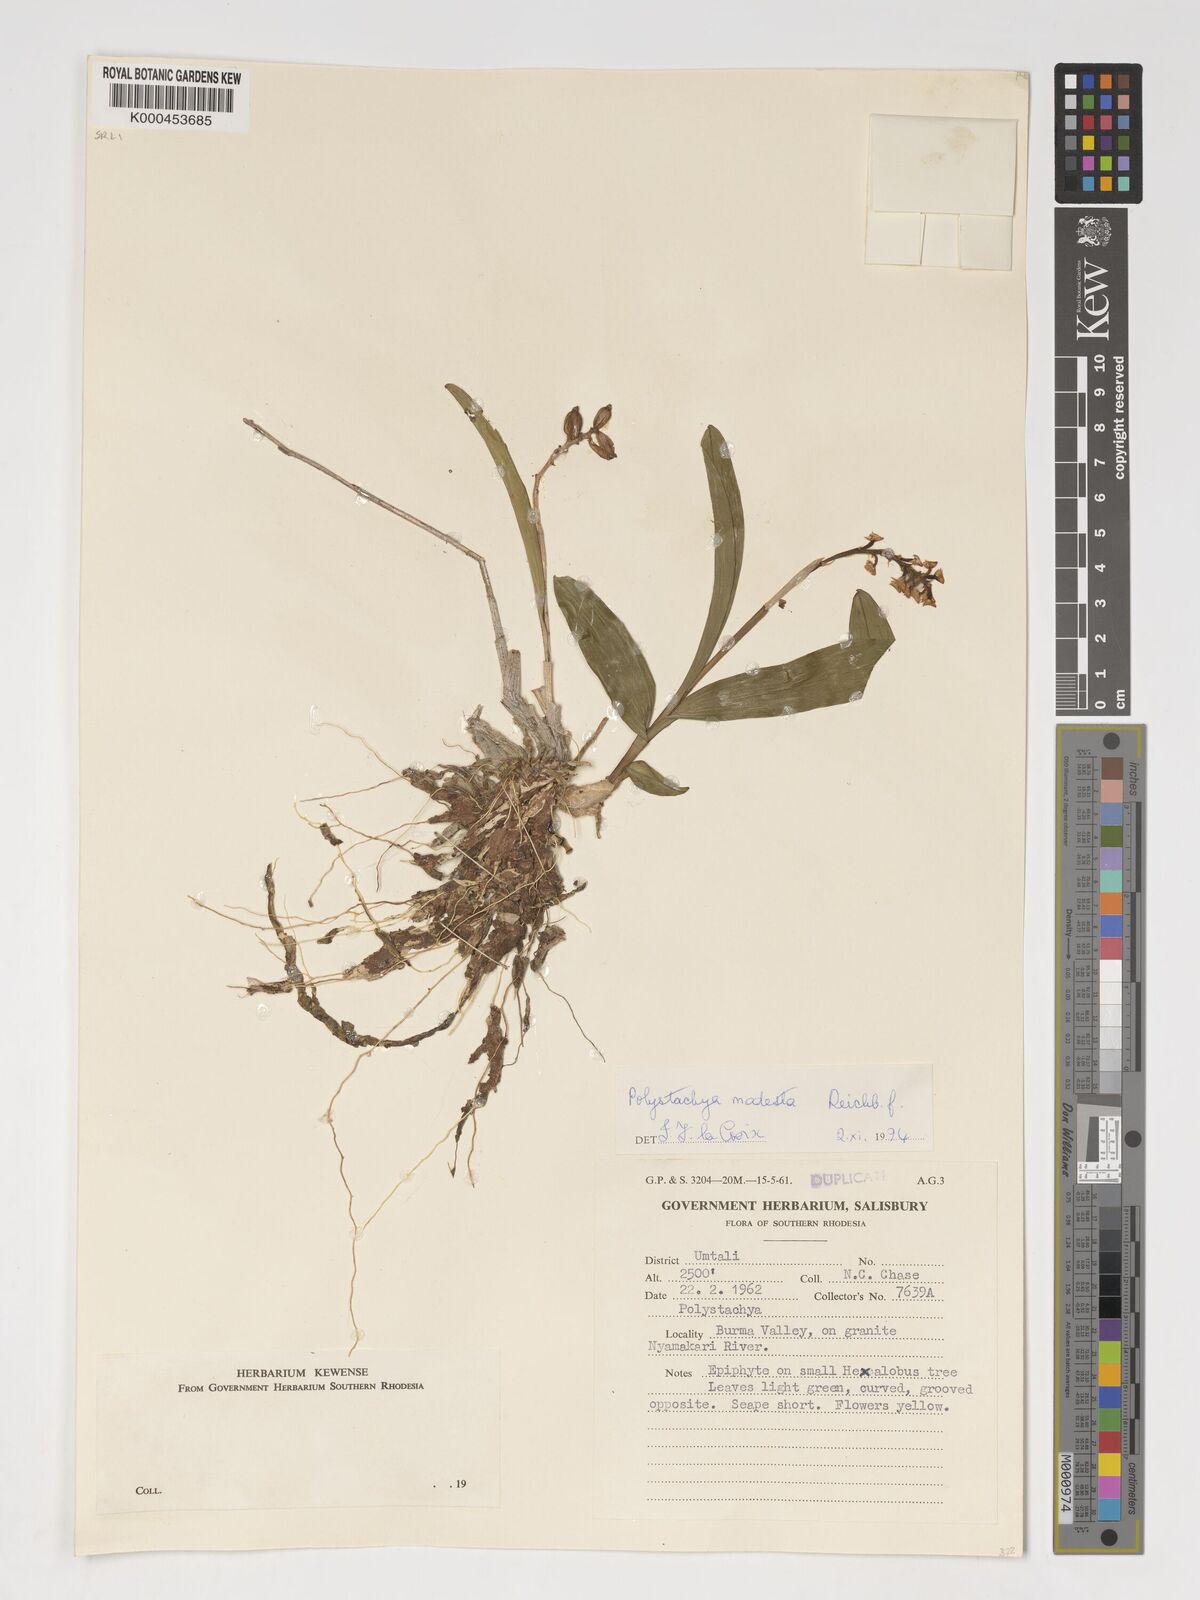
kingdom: Plantae
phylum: Tracheophyta
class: Liliopsida
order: Asparagales
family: Orchidaceae
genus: Polystachya
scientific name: Polystachya modesta
